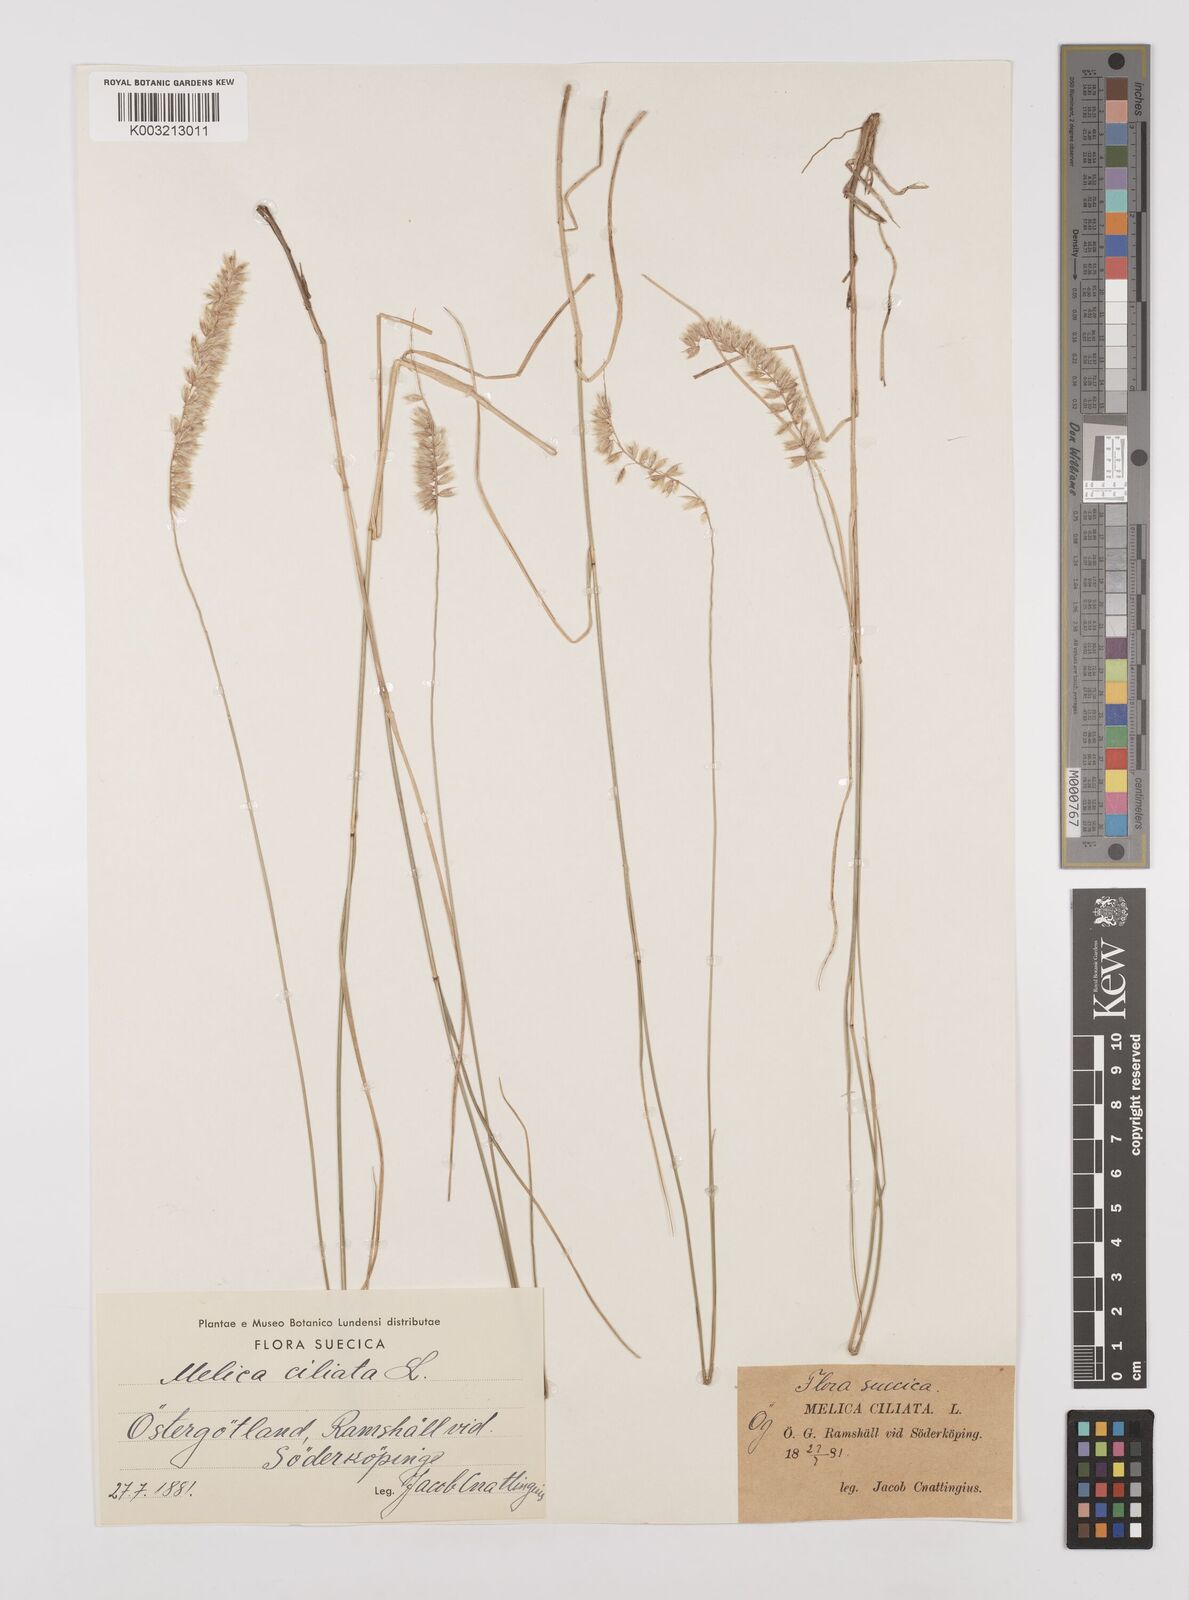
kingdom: Plantae
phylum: Tracheophyta
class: Liliopsida
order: Poales
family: Poaceae
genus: Melica
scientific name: Melica ciliata
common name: Hairy melicgrass
